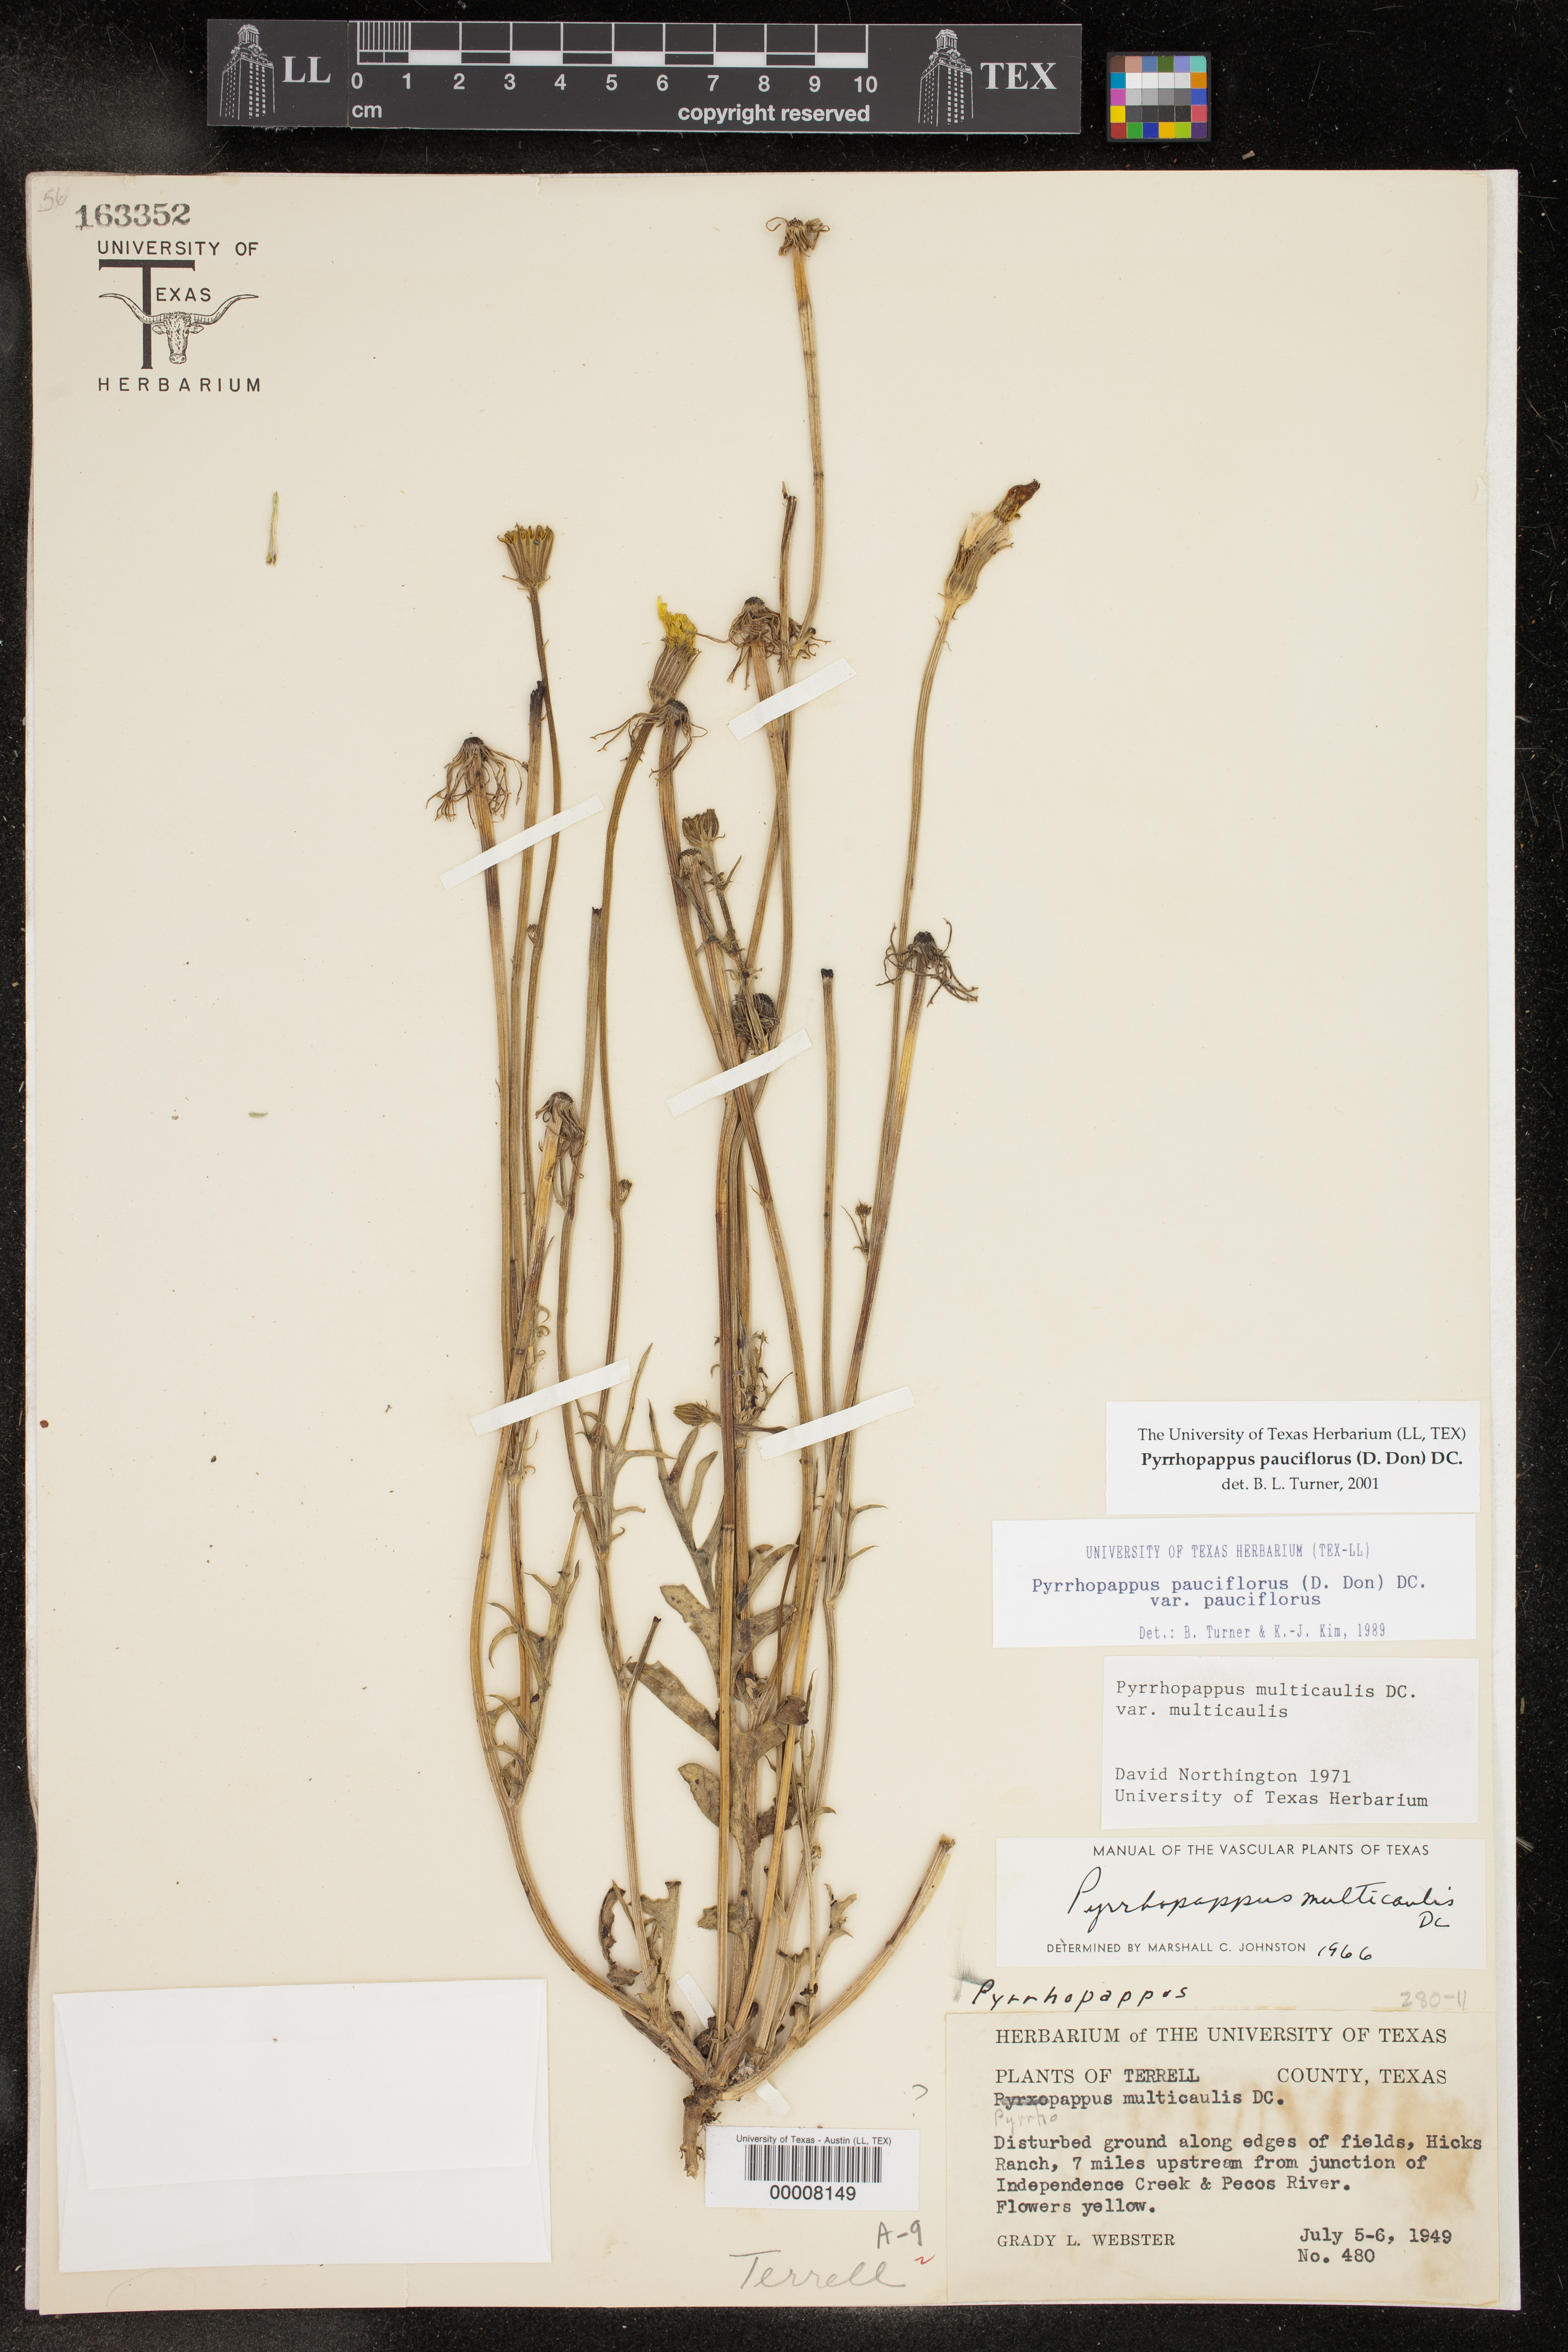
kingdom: Plantae
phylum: Tracheophyta
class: Magnoliopsida
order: Asterales
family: Asteraceae
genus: Pyrrhopappus
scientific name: Pyrrhopappus pauciflorus
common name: Texas false dandelion
